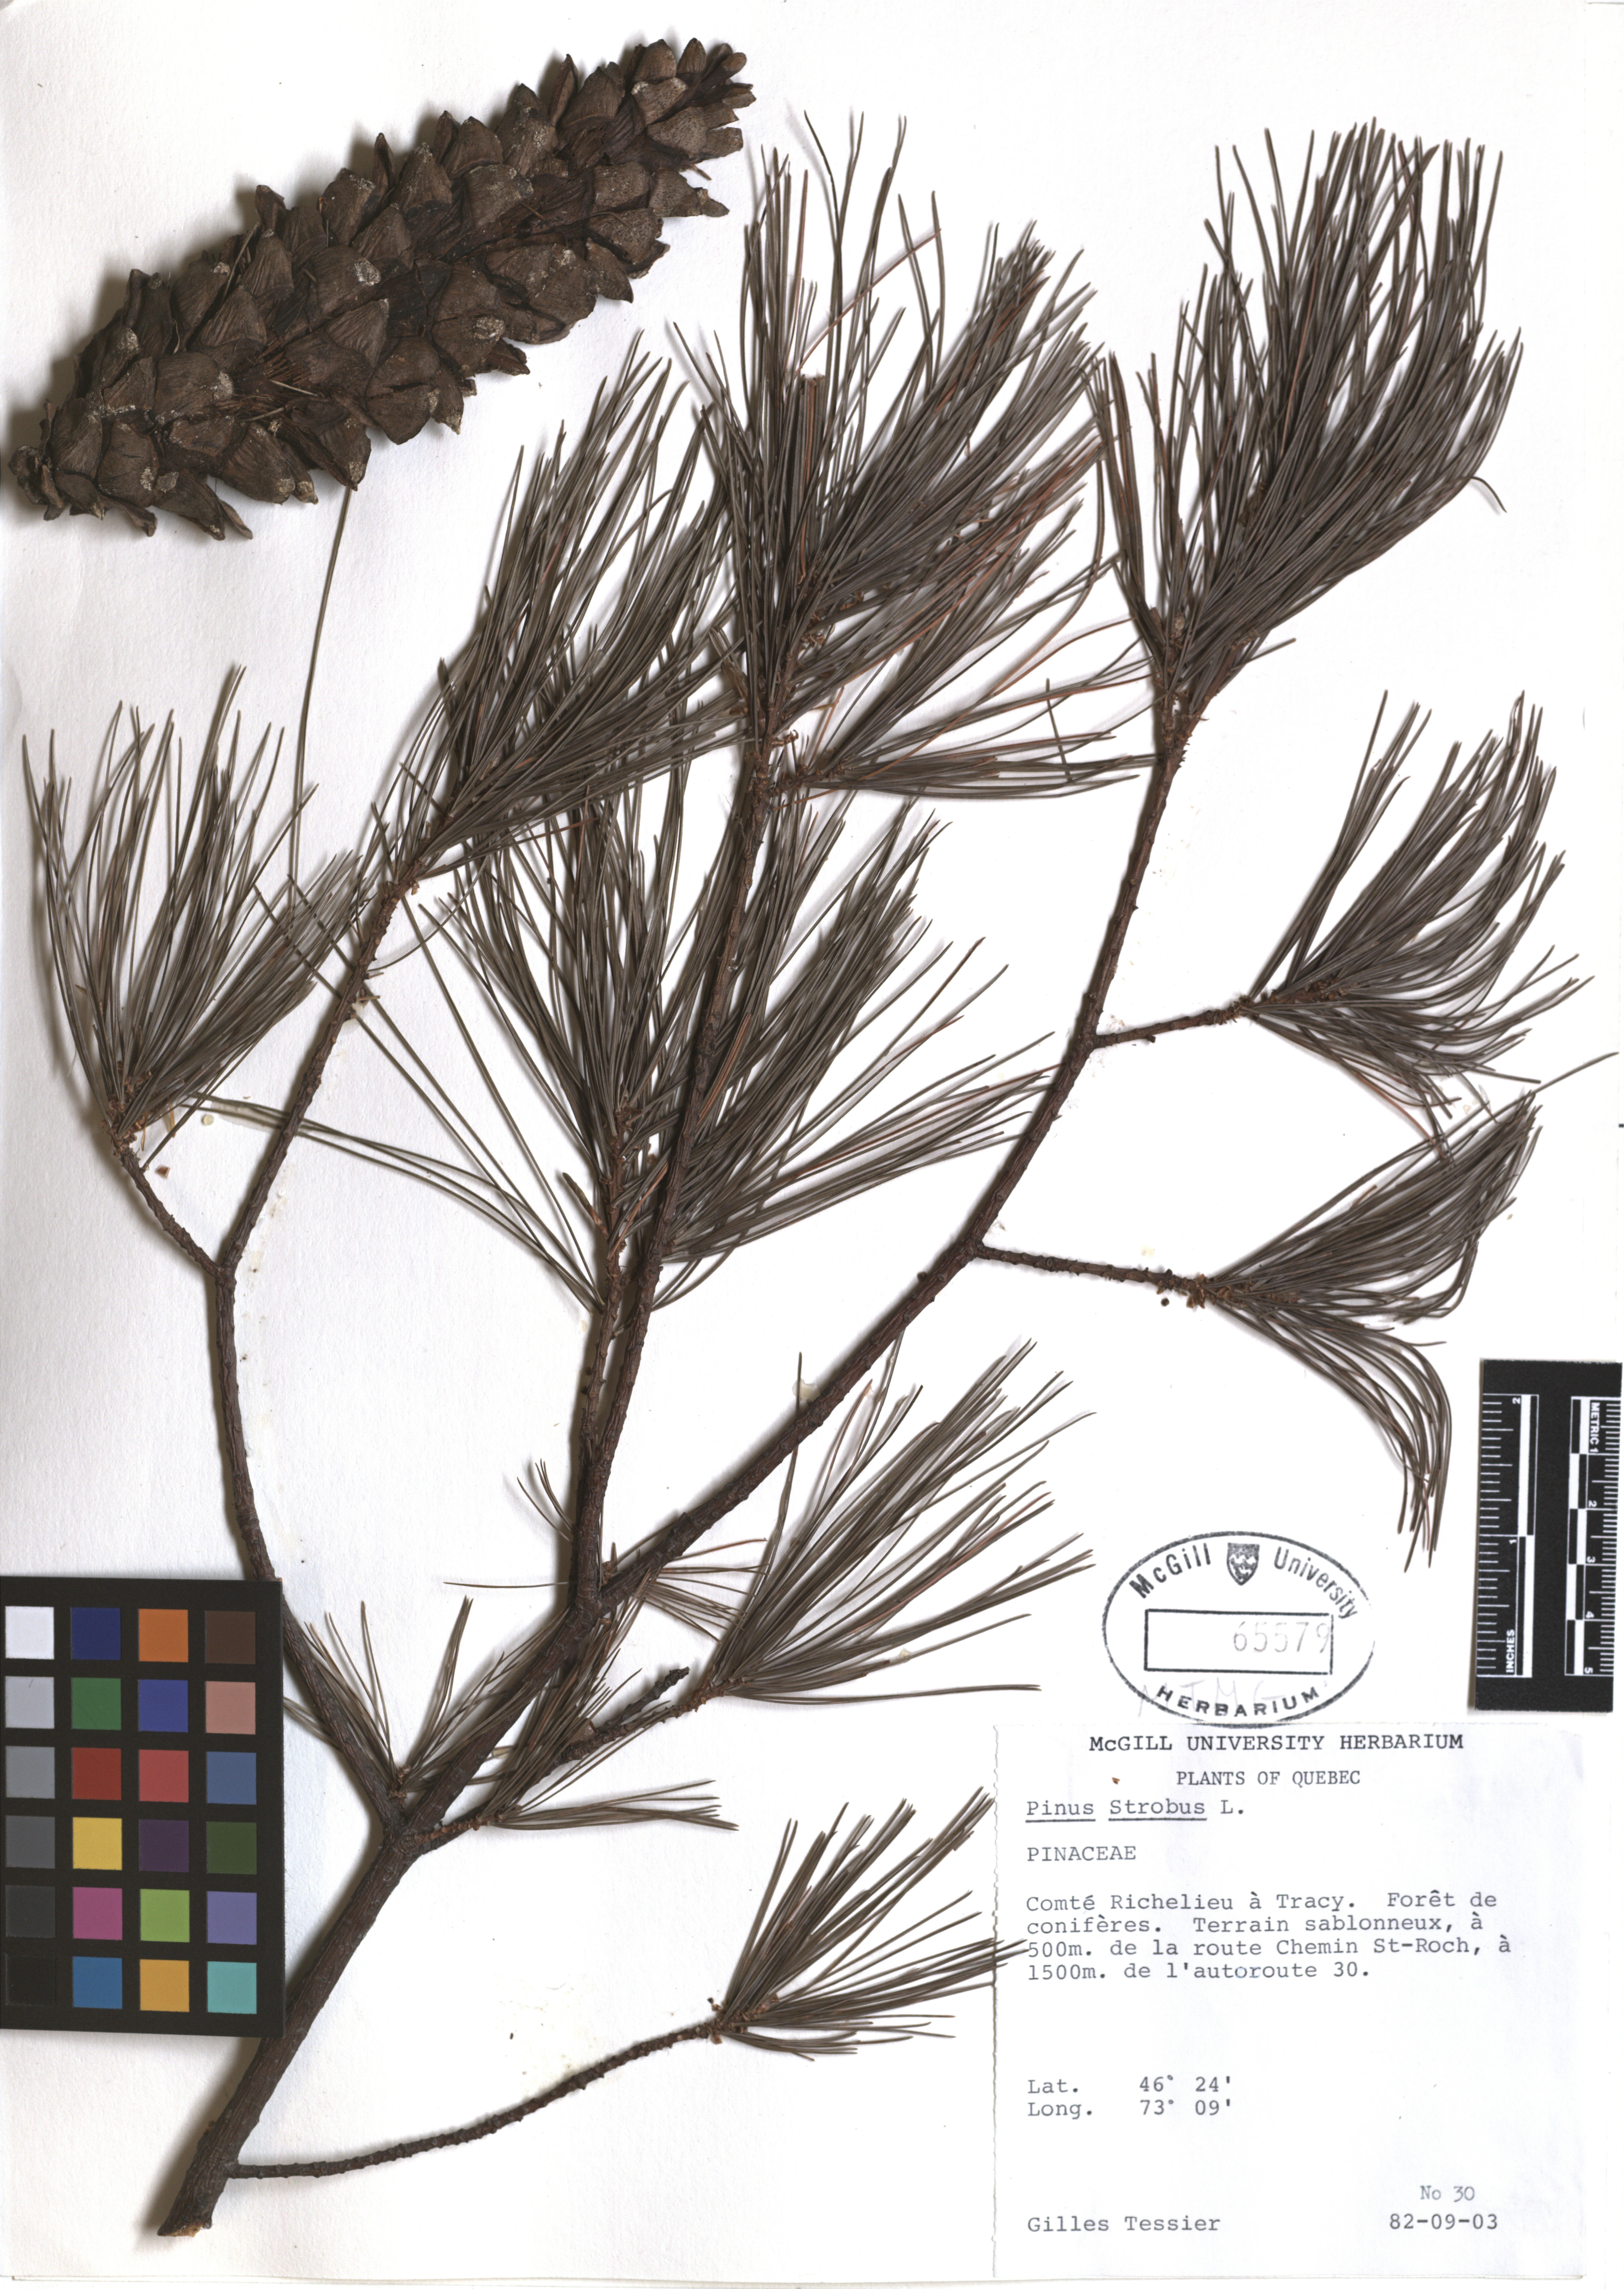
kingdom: Plantae
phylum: Tracheophyta
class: Pinopsida
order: Pinales
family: Pinaceae
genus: Pinus
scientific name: Pinus strobus
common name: Weymouth pine
